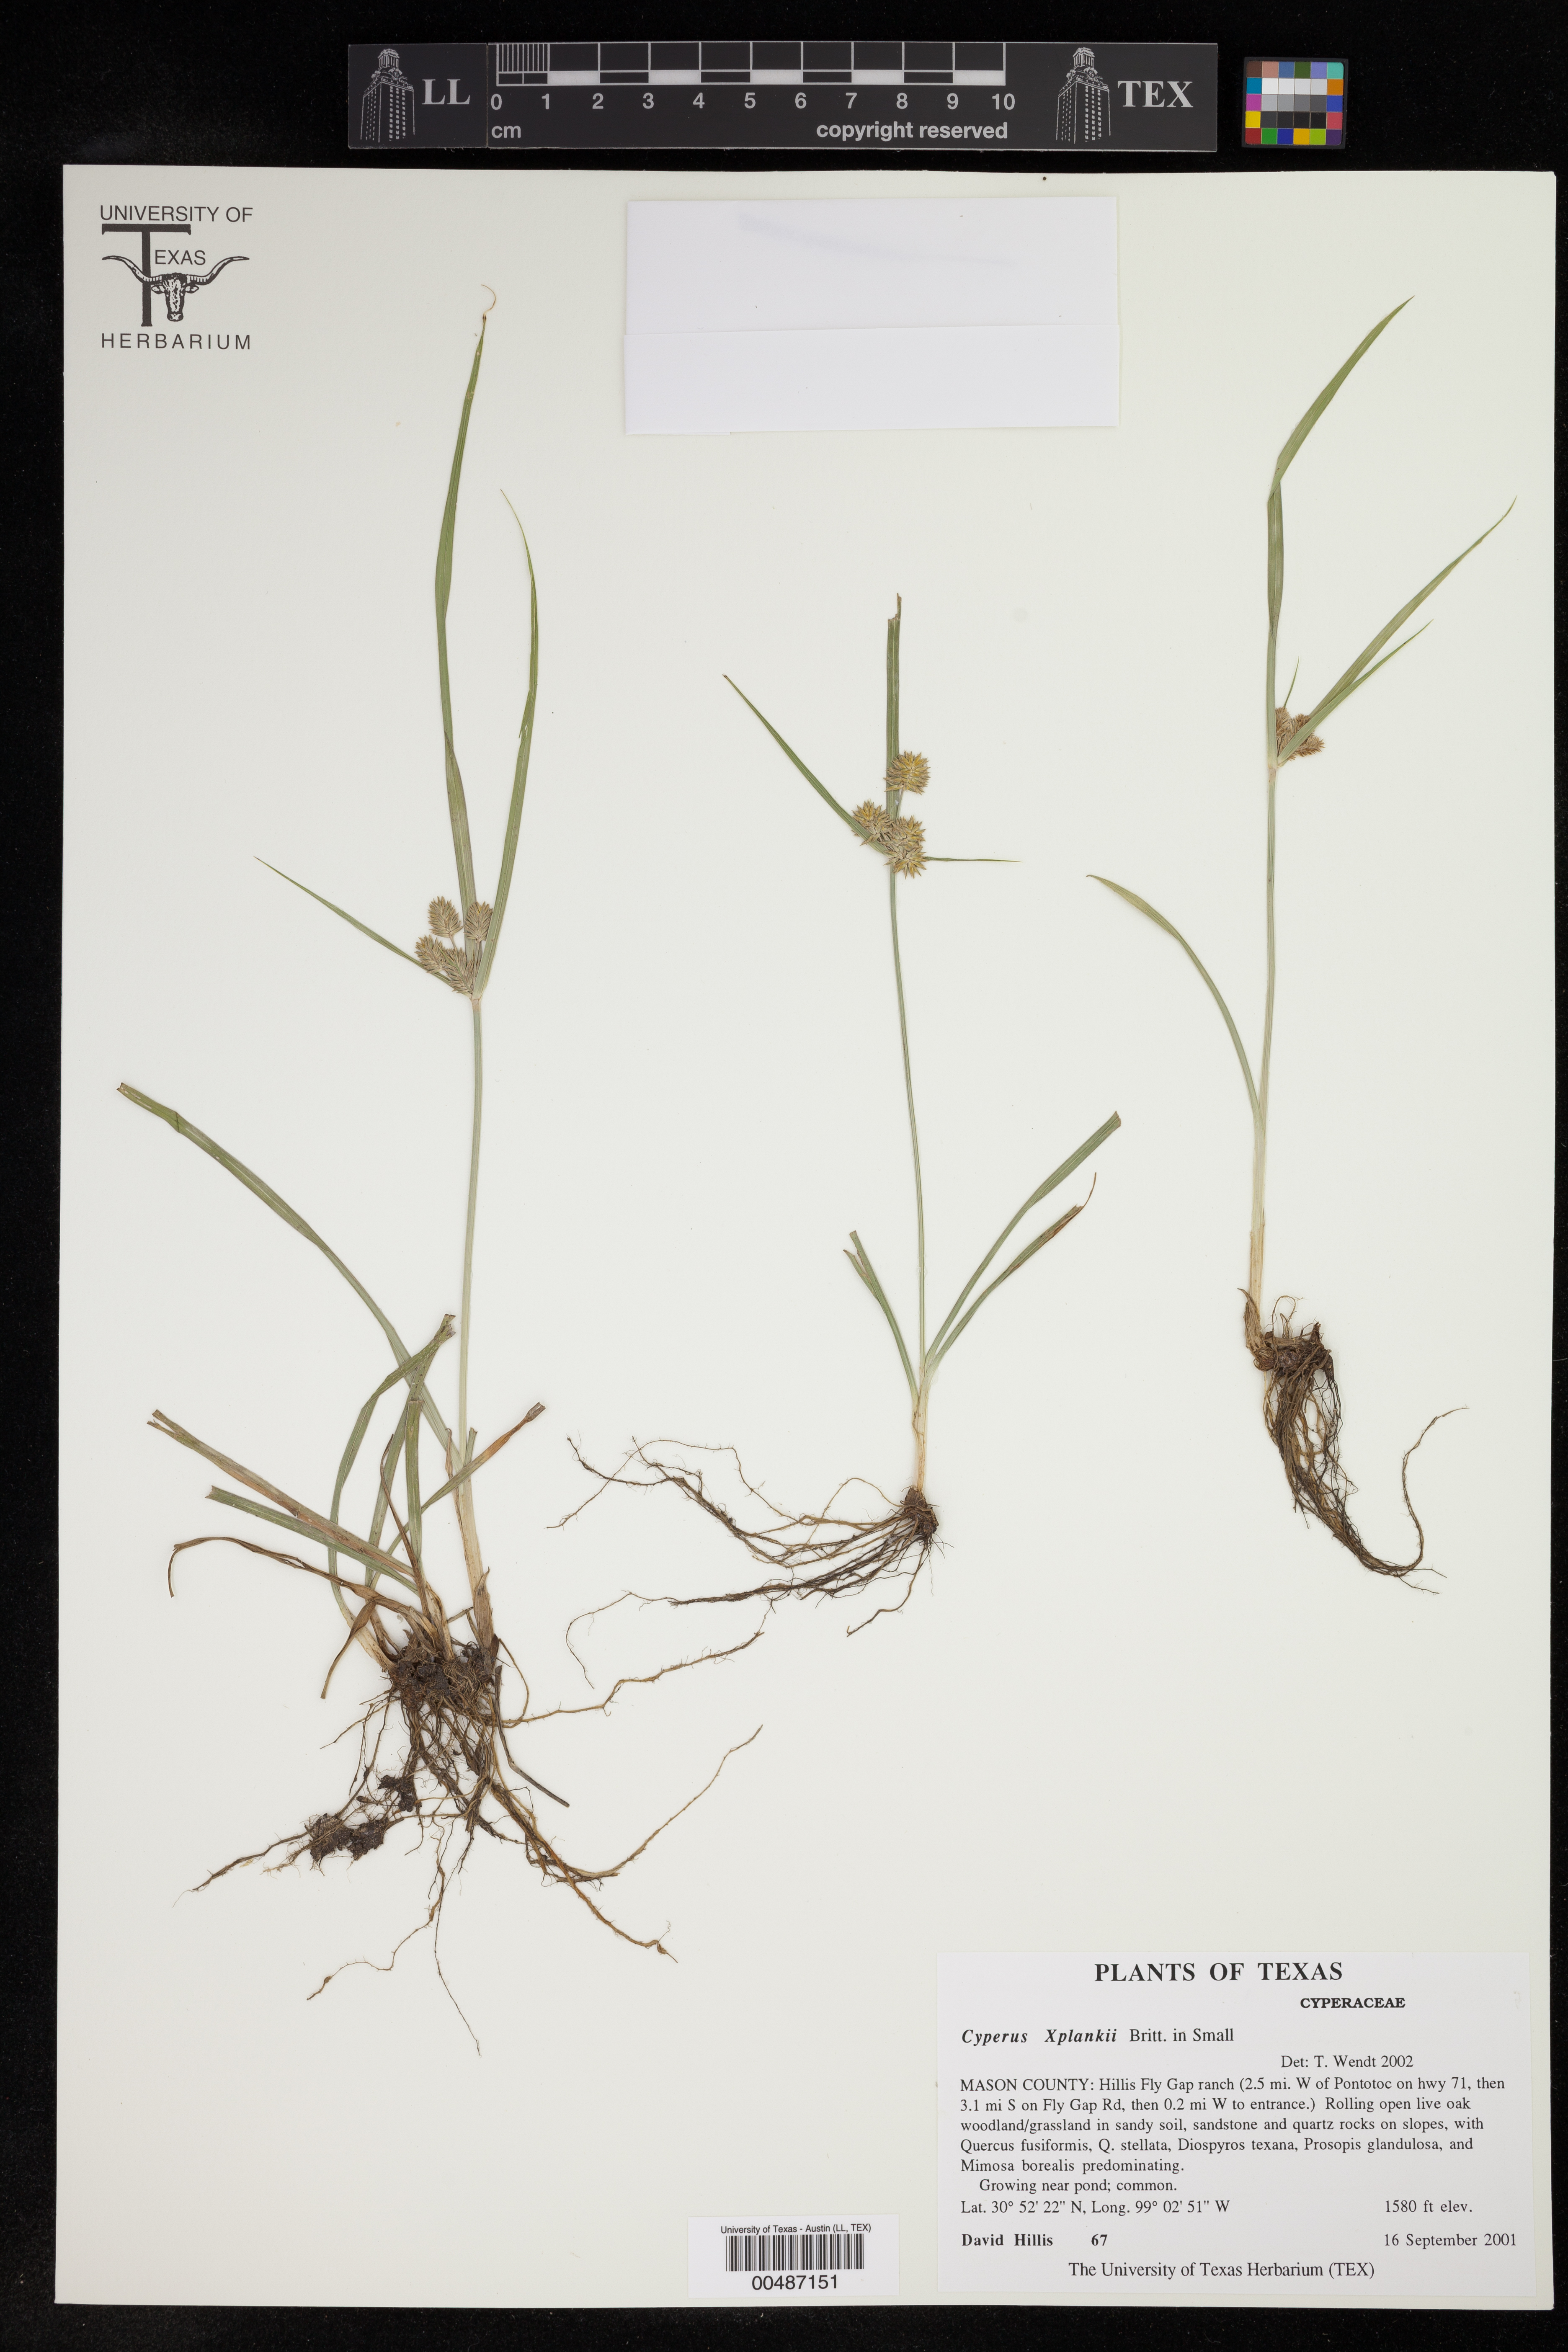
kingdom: Plantae
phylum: Tracheophyta
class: Liliopsida
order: Poales
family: Cyperaceae
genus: Cyperus
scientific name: Cyperus plankii
